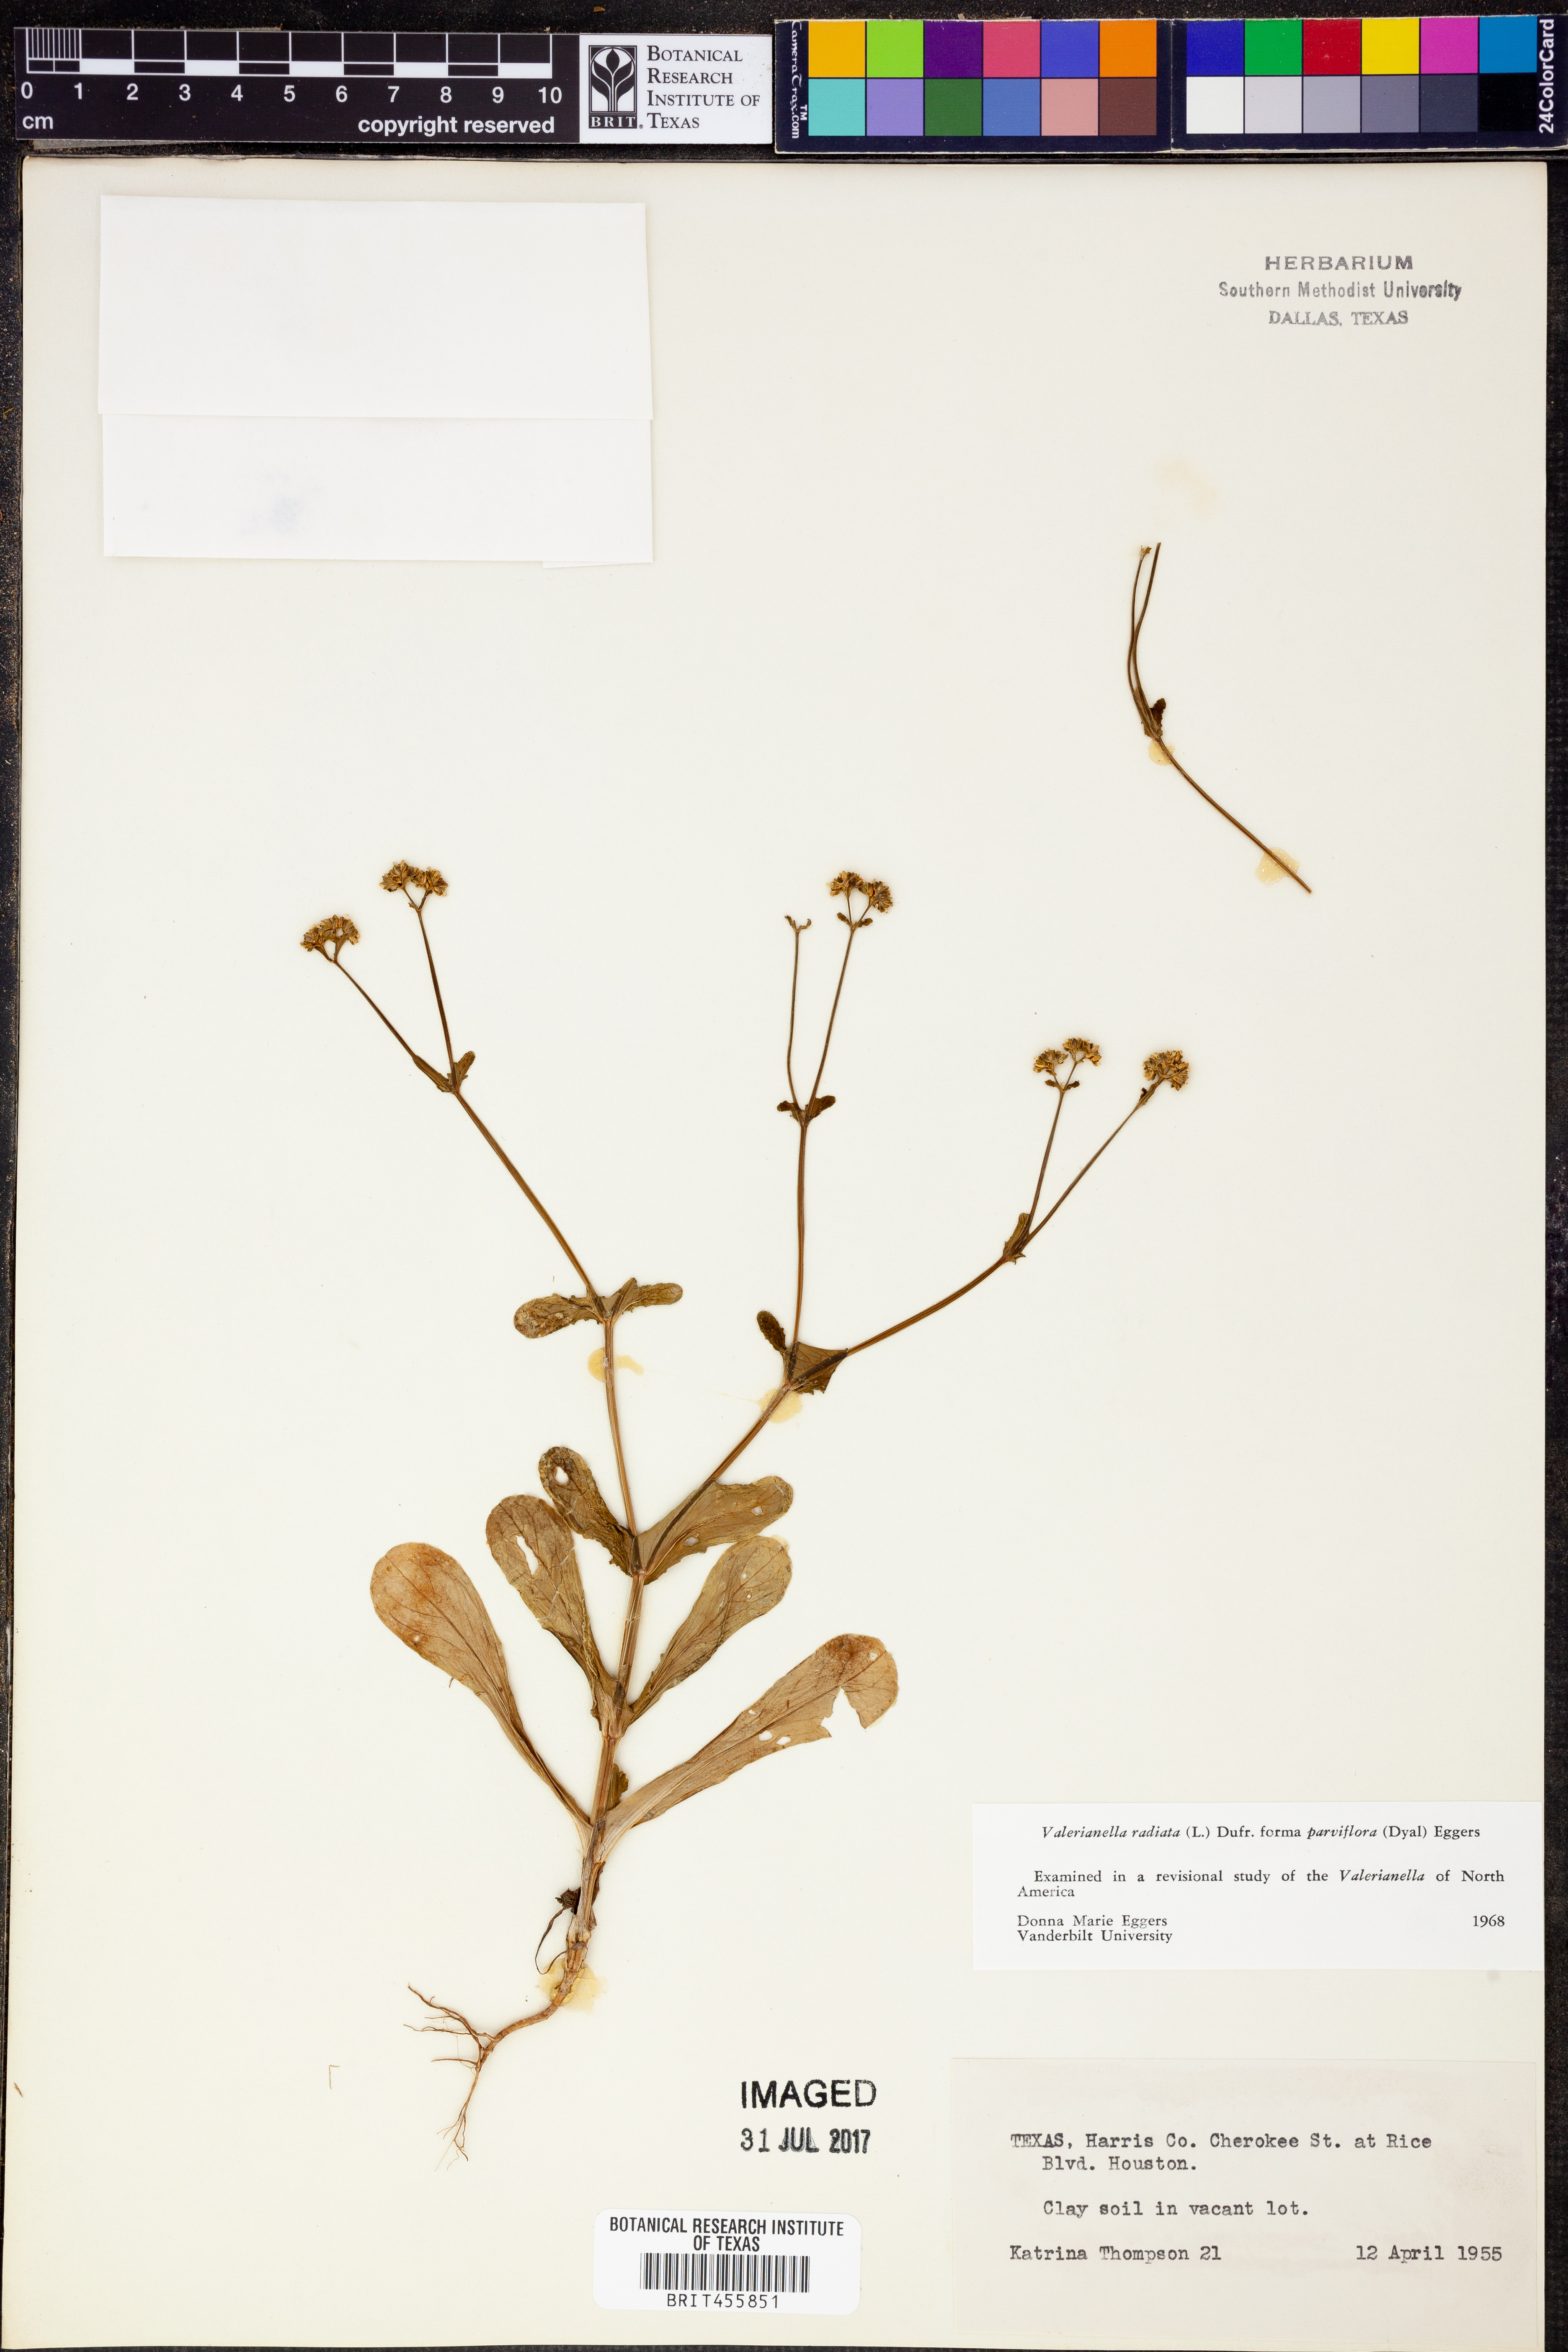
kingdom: Plantae
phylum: Tracheophyta
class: Magnoliopsida
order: Dipsacales
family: Caprifoliaceae
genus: Valerianella
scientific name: Valerianella radiata
